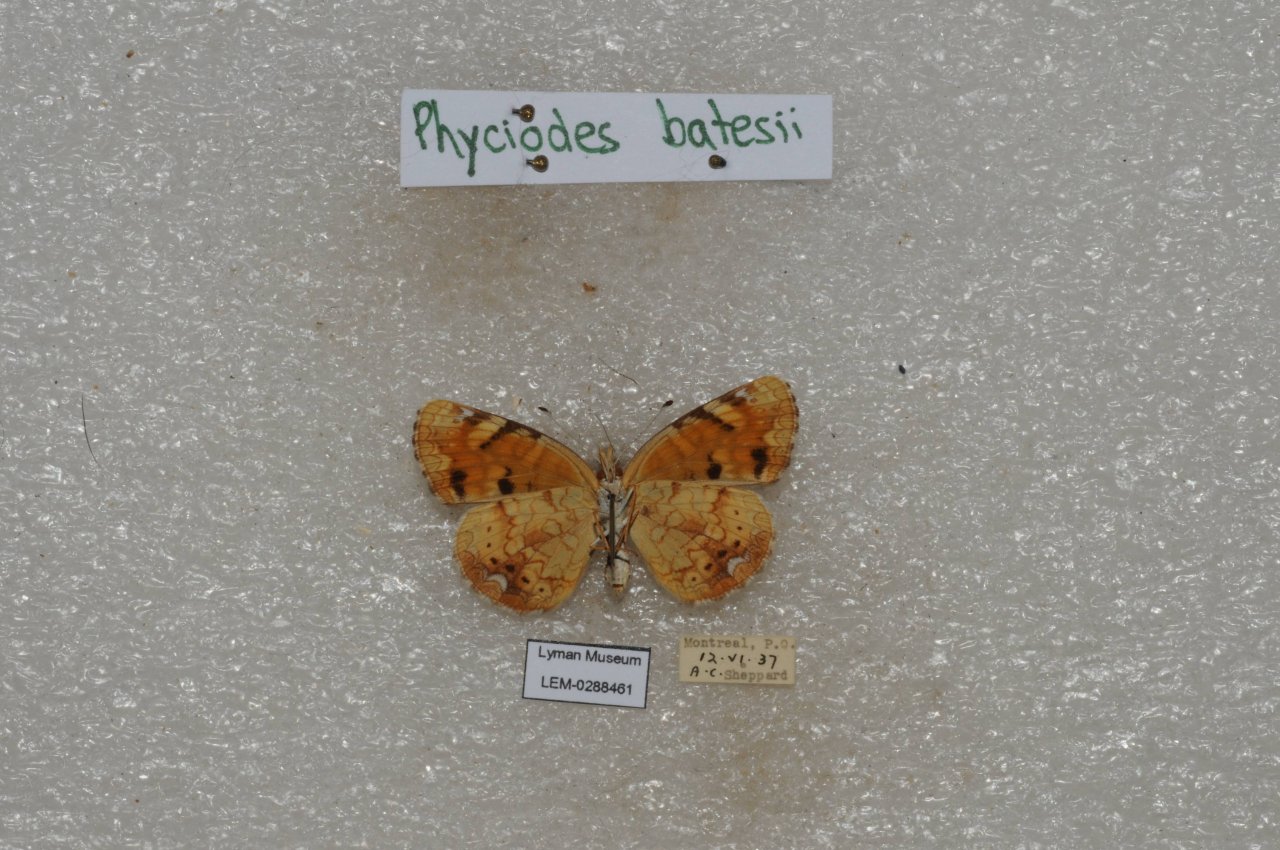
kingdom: Animalia
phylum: Arthropoda
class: Insecta
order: Lepidoptera
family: Nymphalidae
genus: Phyciodes
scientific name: Phyciodes tharos
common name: Northern Crescent
